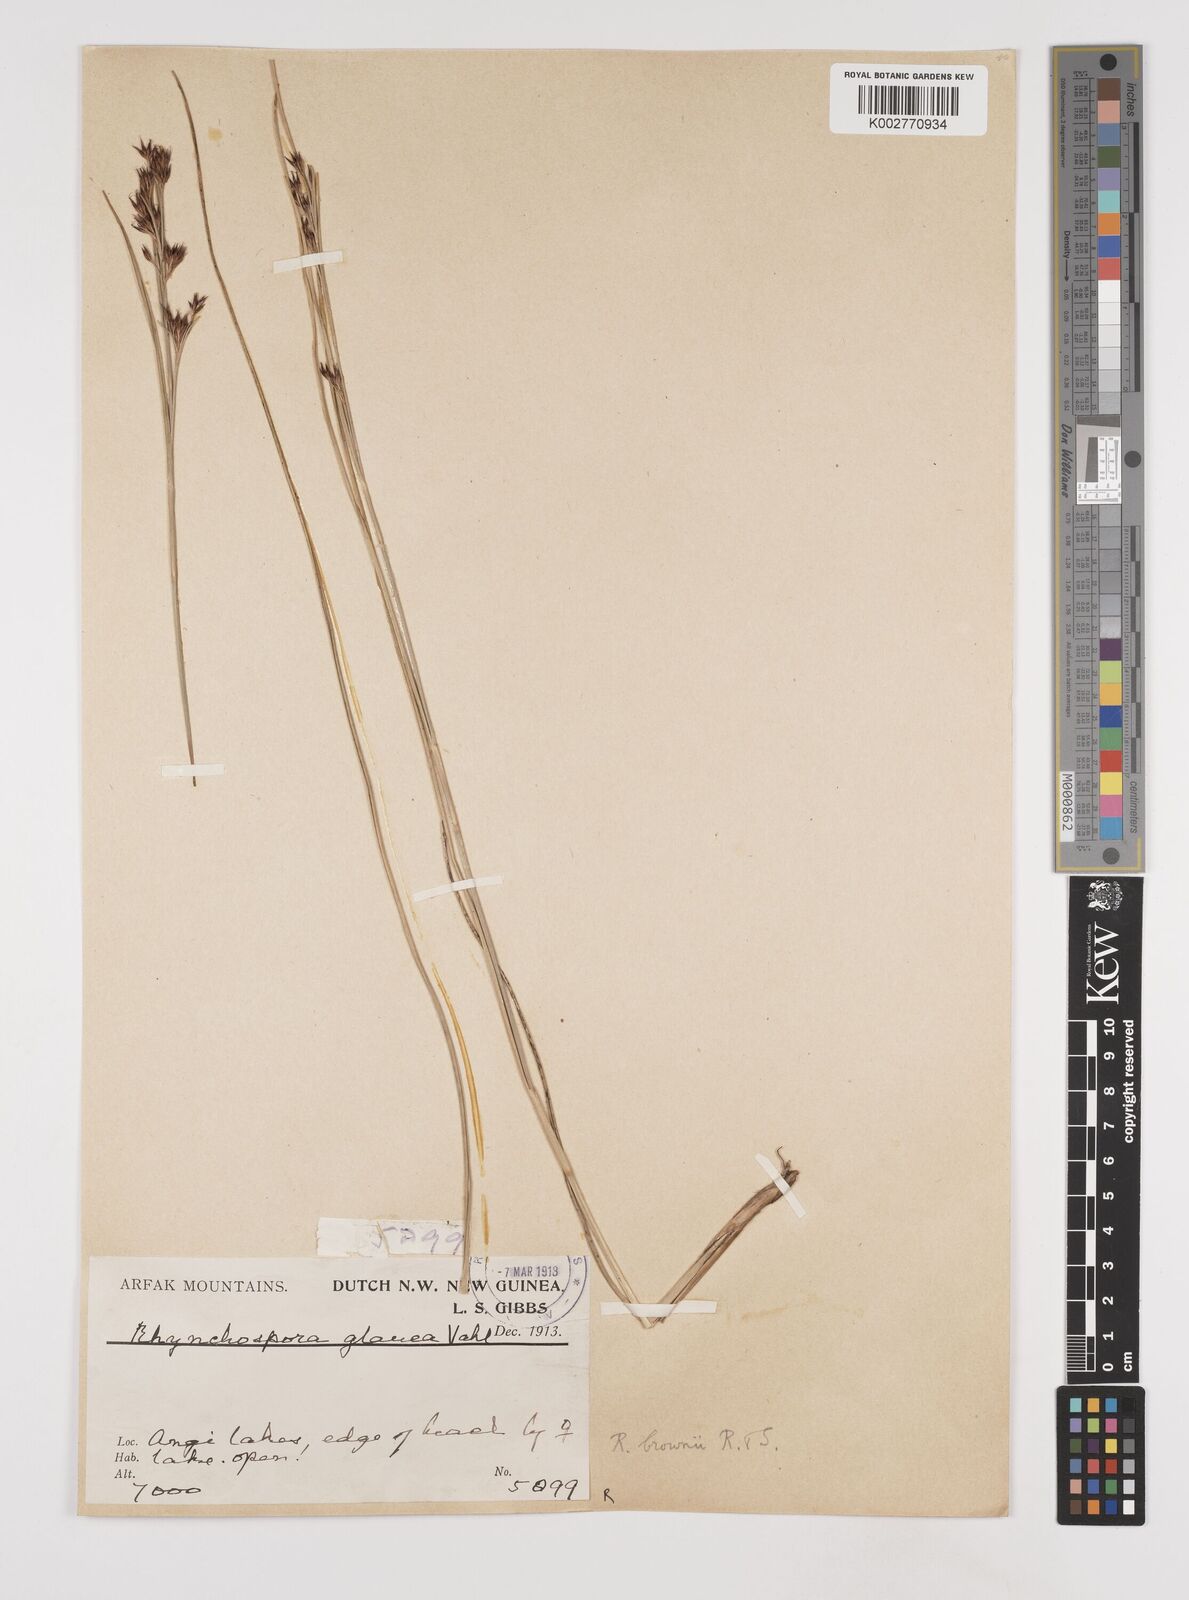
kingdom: Plantae
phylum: Tracheophyta
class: Liliopsida
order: Poales
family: Cyperaceae
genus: Rhynchospora
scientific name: Rhynchospora rugosa
